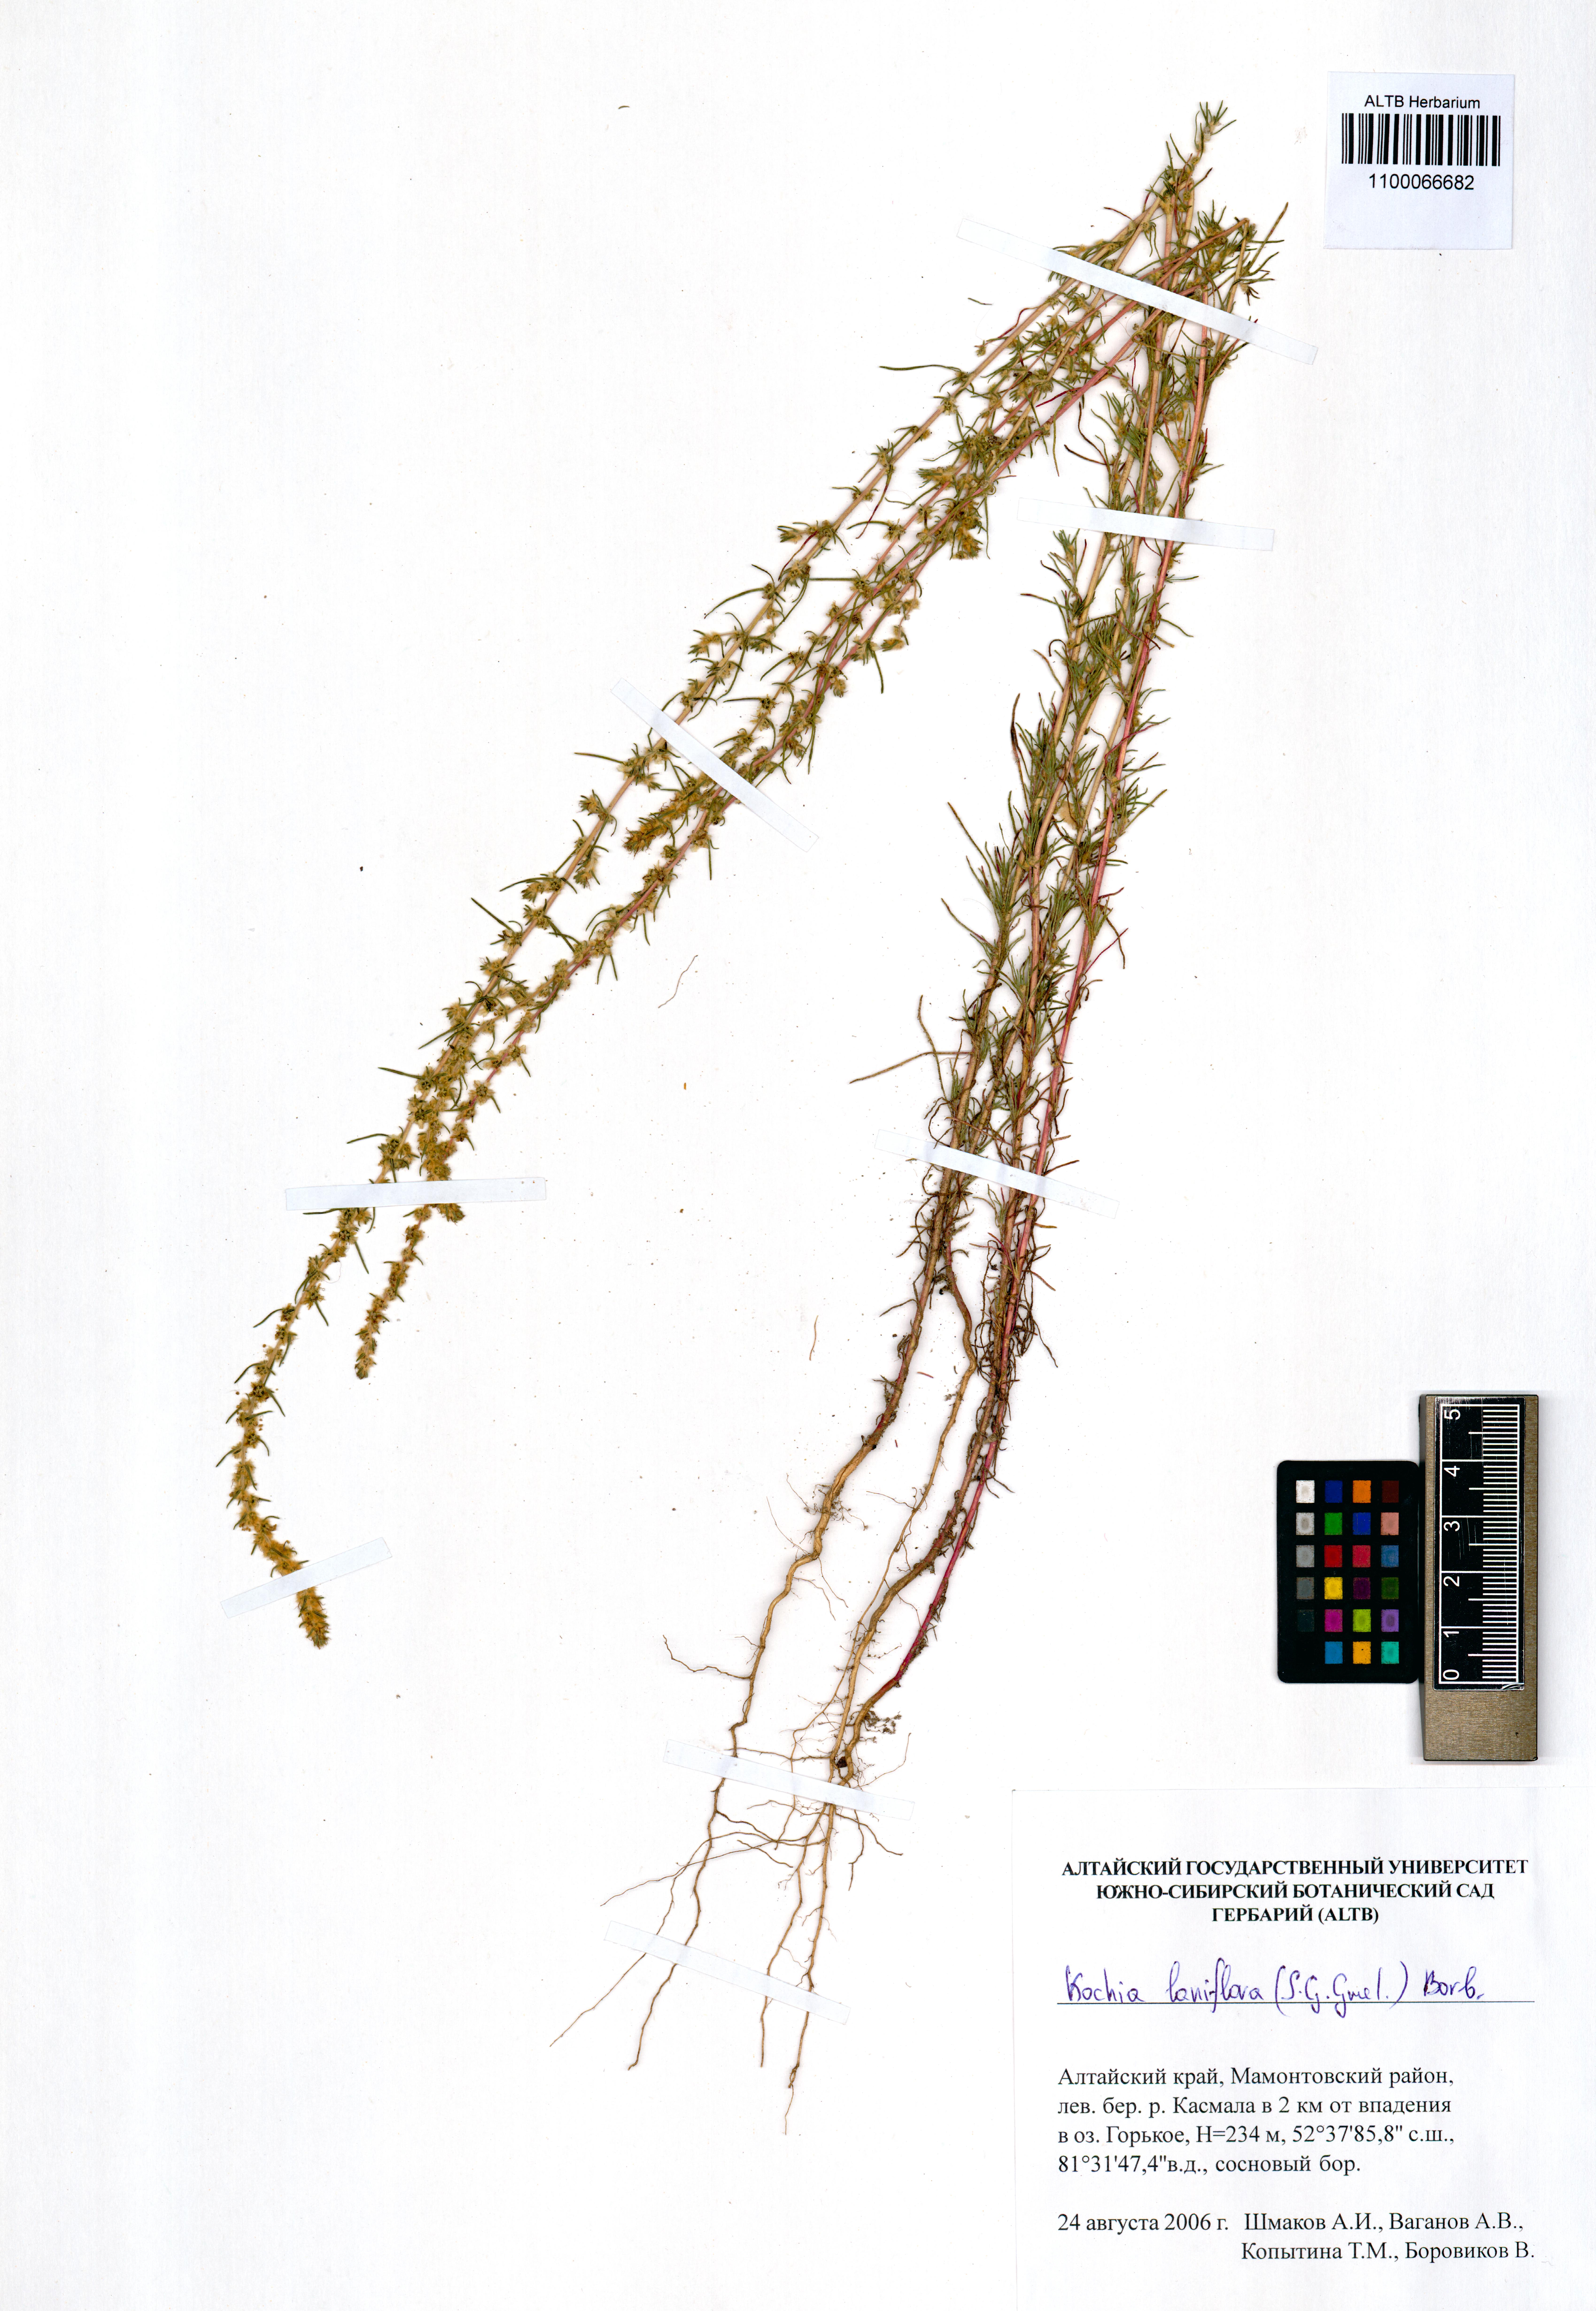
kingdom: Plantae
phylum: Tracheophyta
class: Magnoliopsida
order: Caryophyllales
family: Amaranthaceae
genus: Bassia
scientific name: Bassia laniflora
